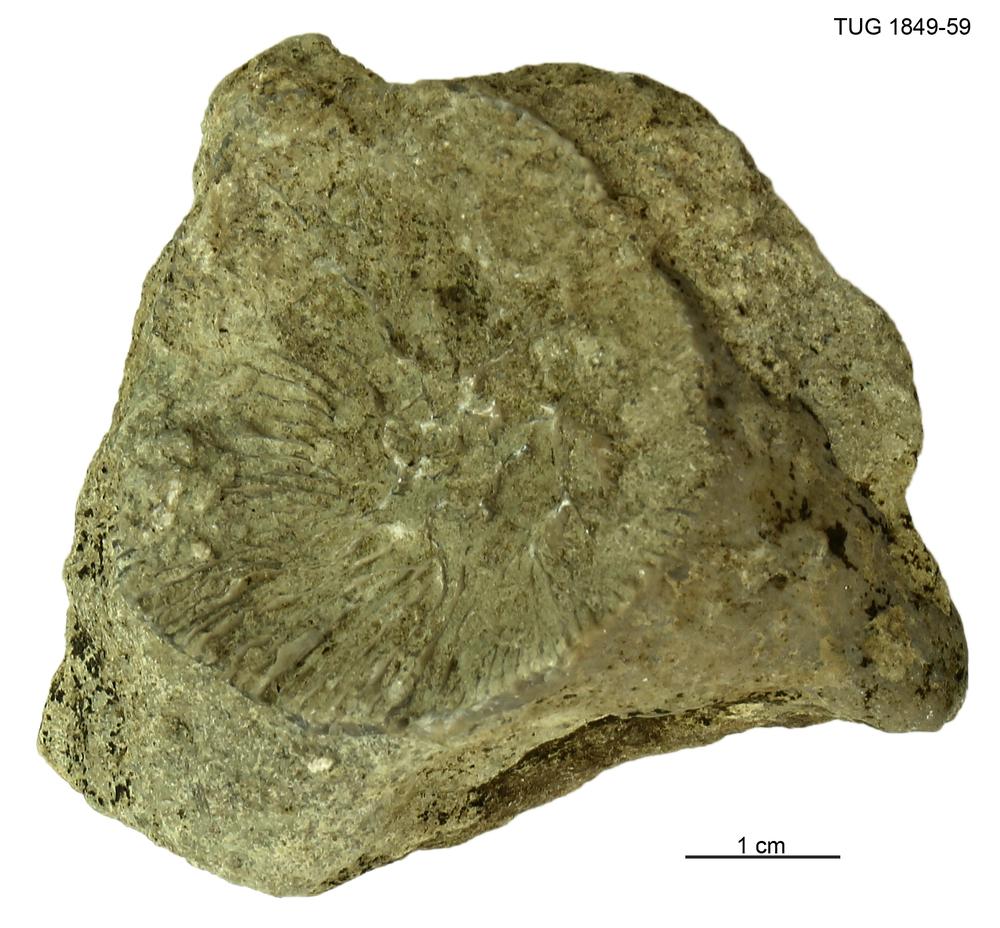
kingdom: Animalia
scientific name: Animalia
